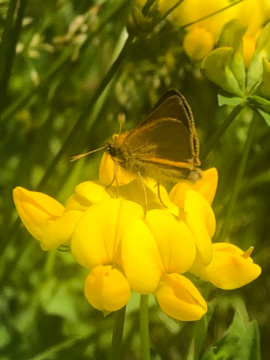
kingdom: Animalia
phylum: Arthropoda
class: Insecta
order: Lepidoptera
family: Hesperiidae
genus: Thymelicus
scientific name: Thymelicus lineola
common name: European Skipper
